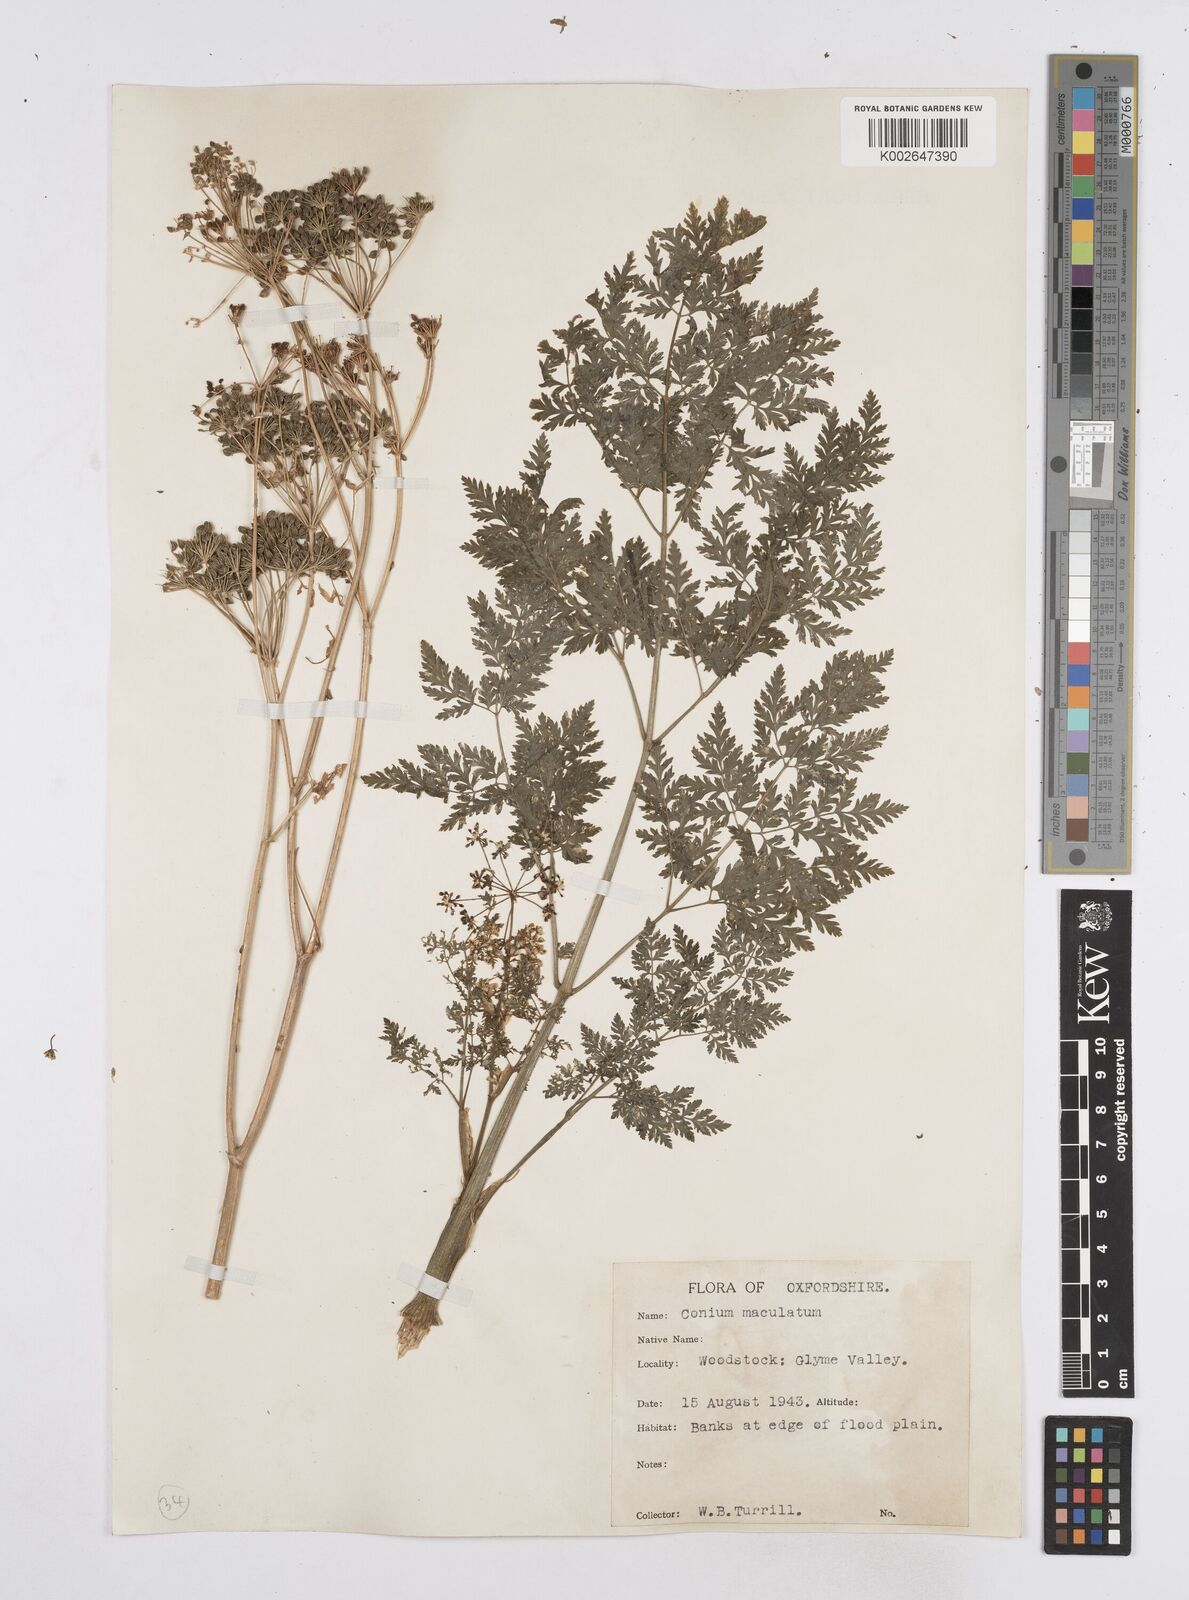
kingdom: Plantae
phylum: Tracheophyta
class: Magnoliopsida
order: Apiales
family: Apiaceae
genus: Conium
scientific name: Conium maculatum
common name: Hemlock
